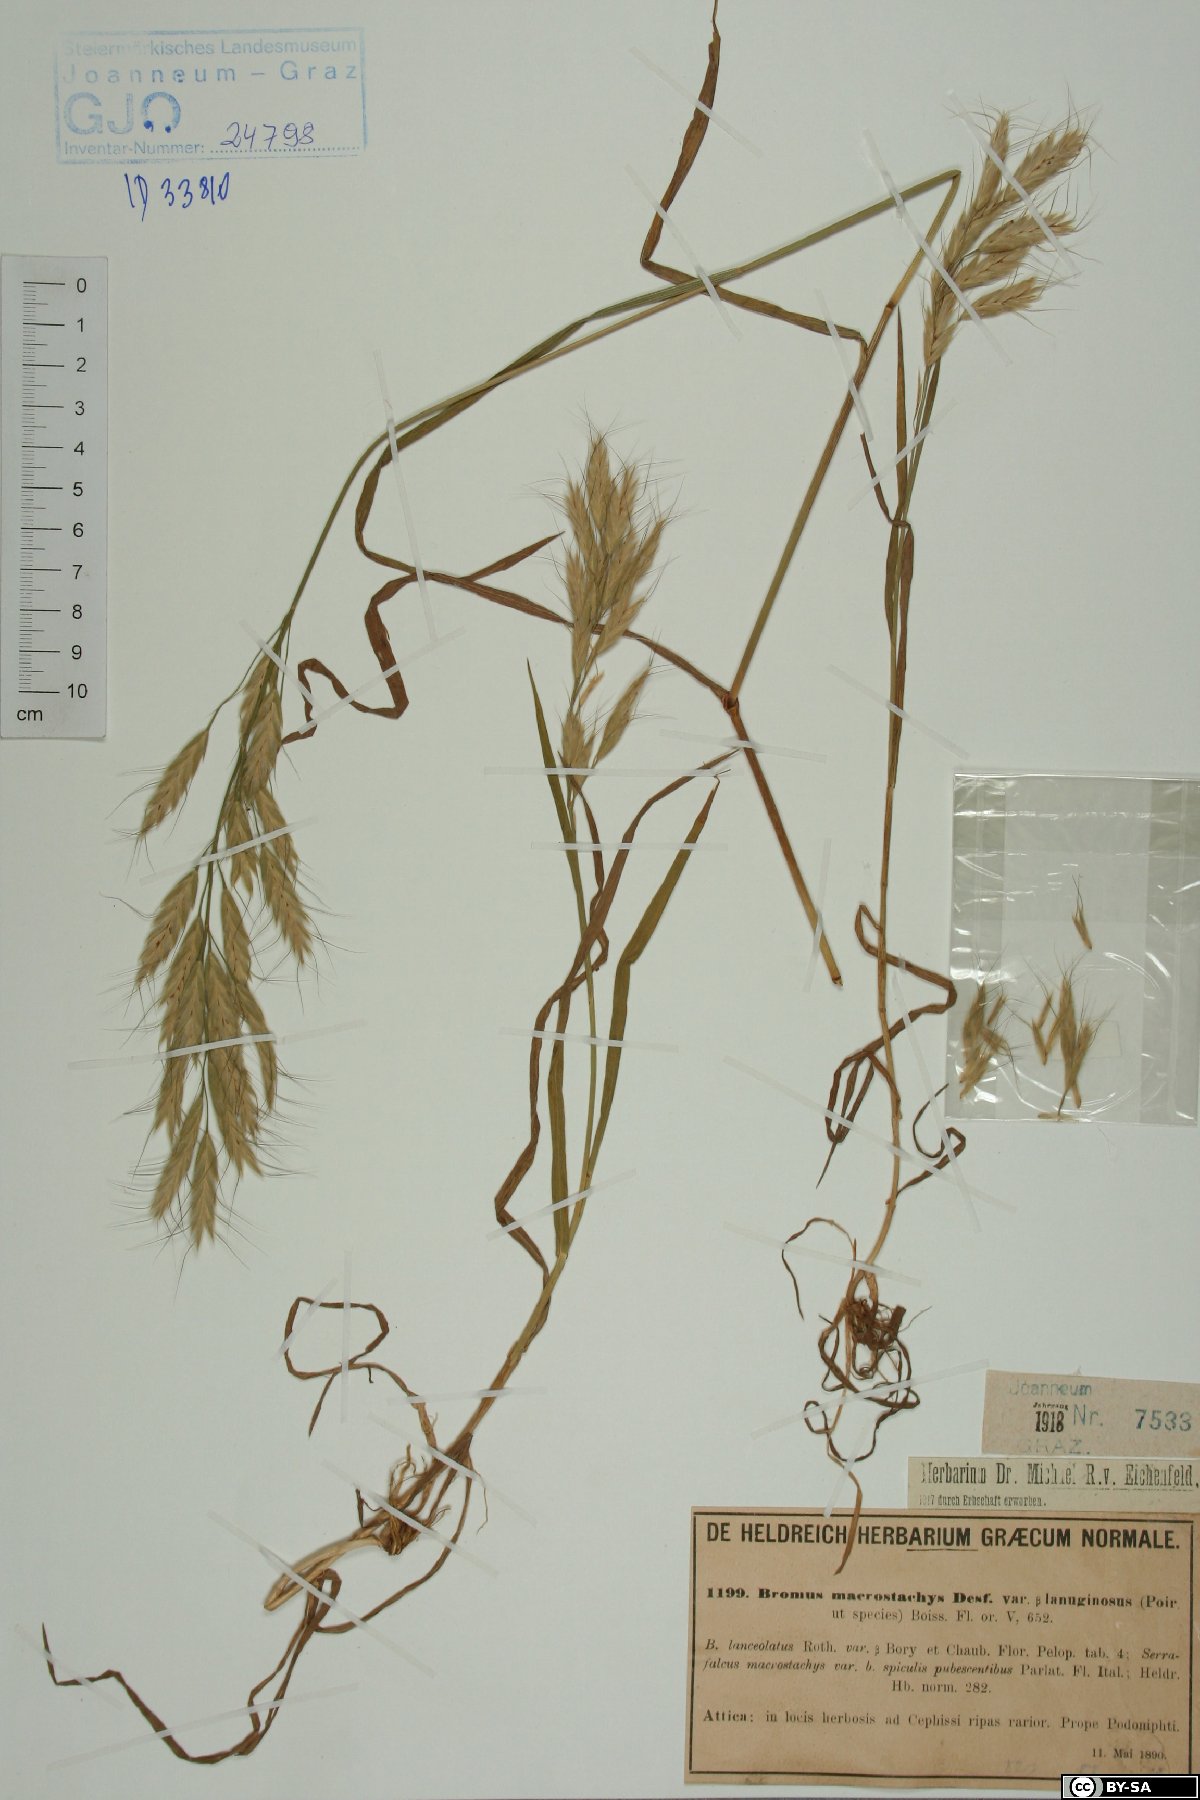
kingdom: Plantae
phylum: Tracheophyta
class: Liliopsida
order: Poales
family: Poaceae
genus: Bromus
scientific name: Bromus lanceolatus
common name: Mediterranean brome
